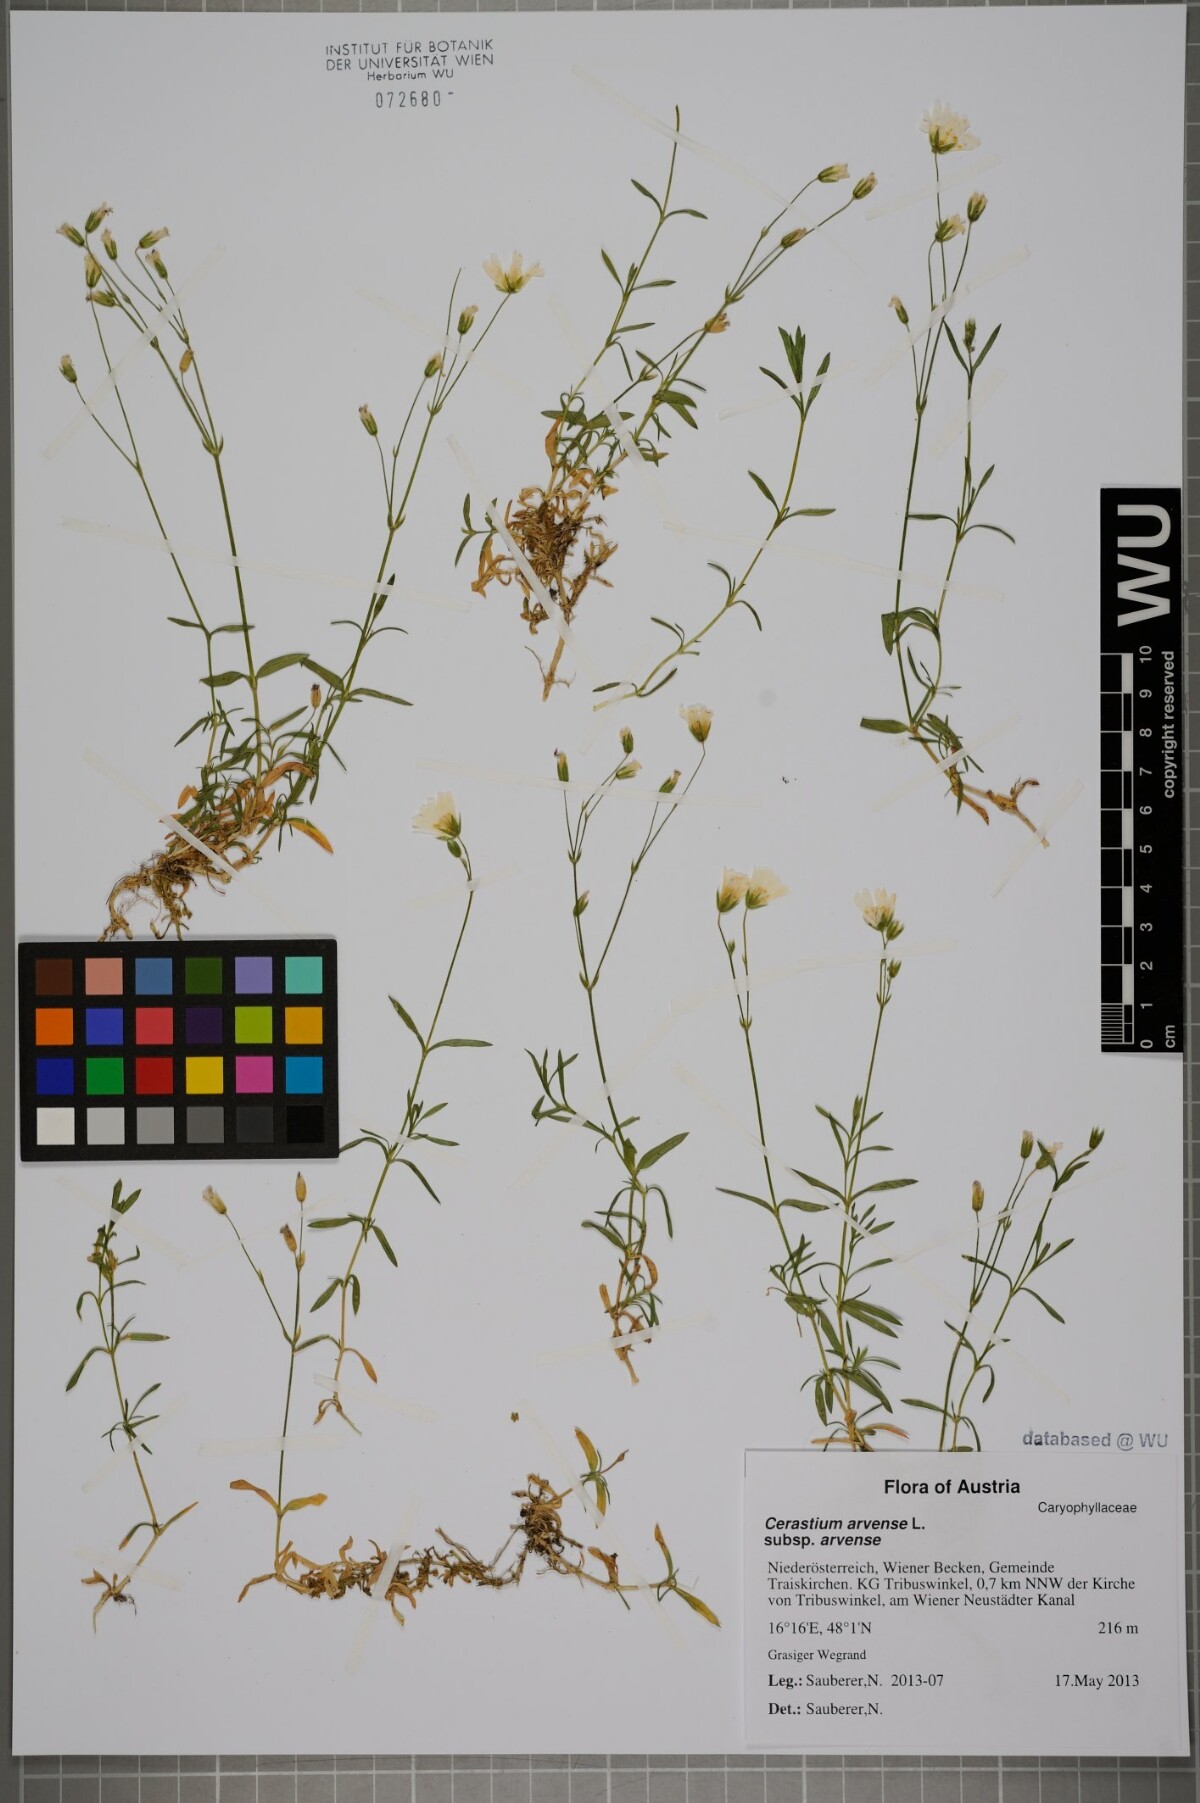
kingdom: Plantae
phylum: Tracheophyta
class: Magnoliopsida
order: Caryophyllales
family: Caryophyllaceae
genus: Cerastium
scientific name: Cerastium arvense
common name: Field mouse-ear
